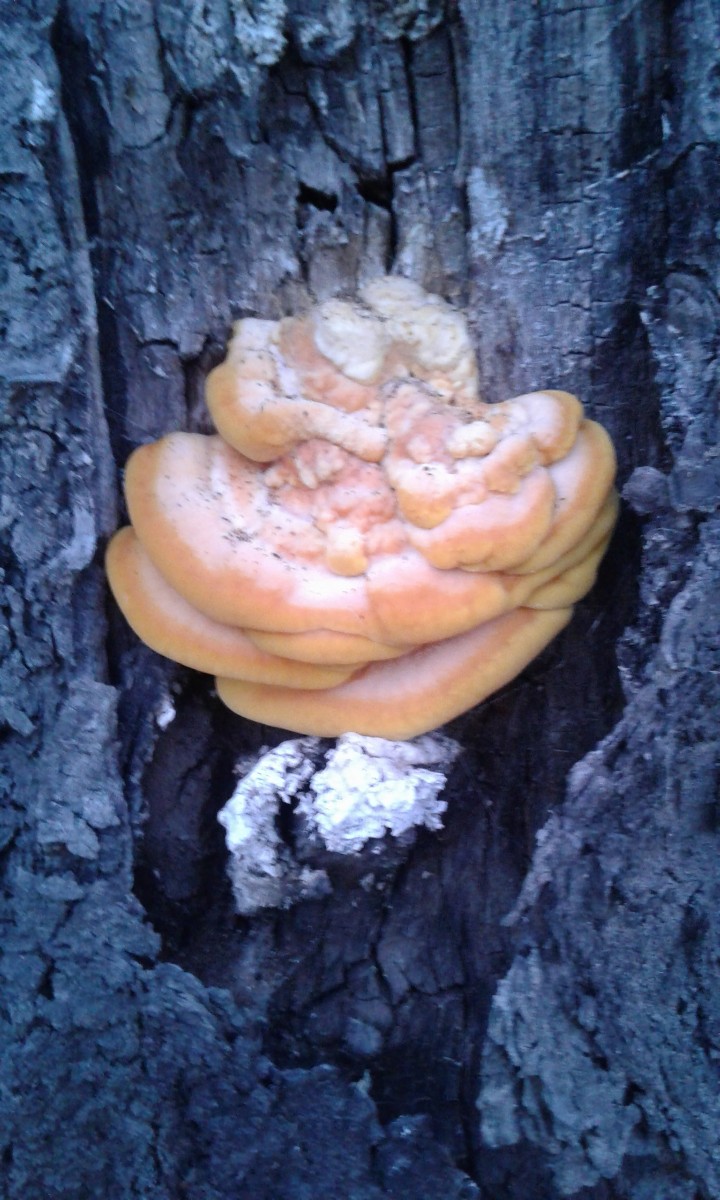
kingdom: Fungi
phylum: Basidiomycota
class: Agaricomycetes
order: Polyporales
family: Laetiporaceae
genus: Laetiporus
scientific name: Laetiporus sulphureus
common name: svovlporesvamp
